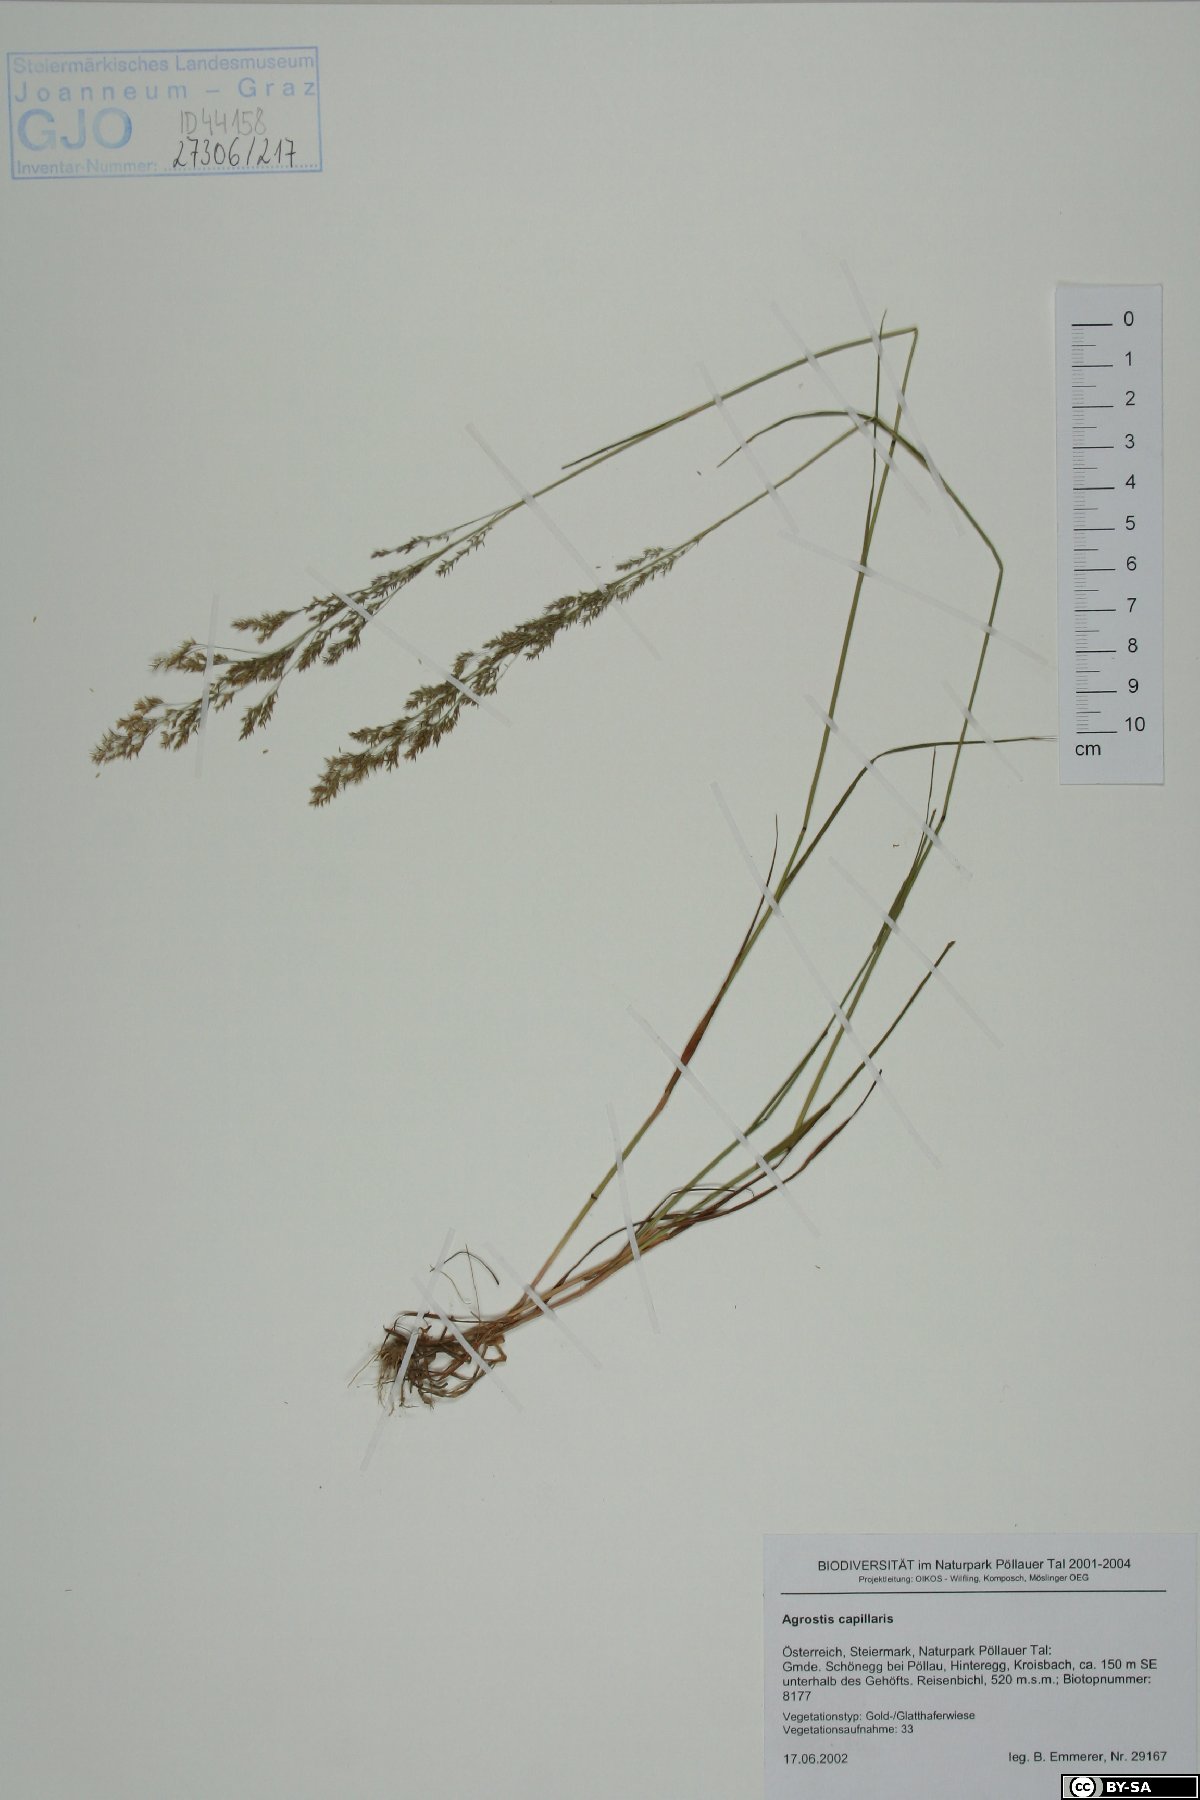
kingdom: Plantae
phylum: Tracheophyta
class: Liliopsida
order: Poales
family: Poaceae
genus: Agrostis
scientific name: Agrostis capillaris
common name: Colonial bentgrass
